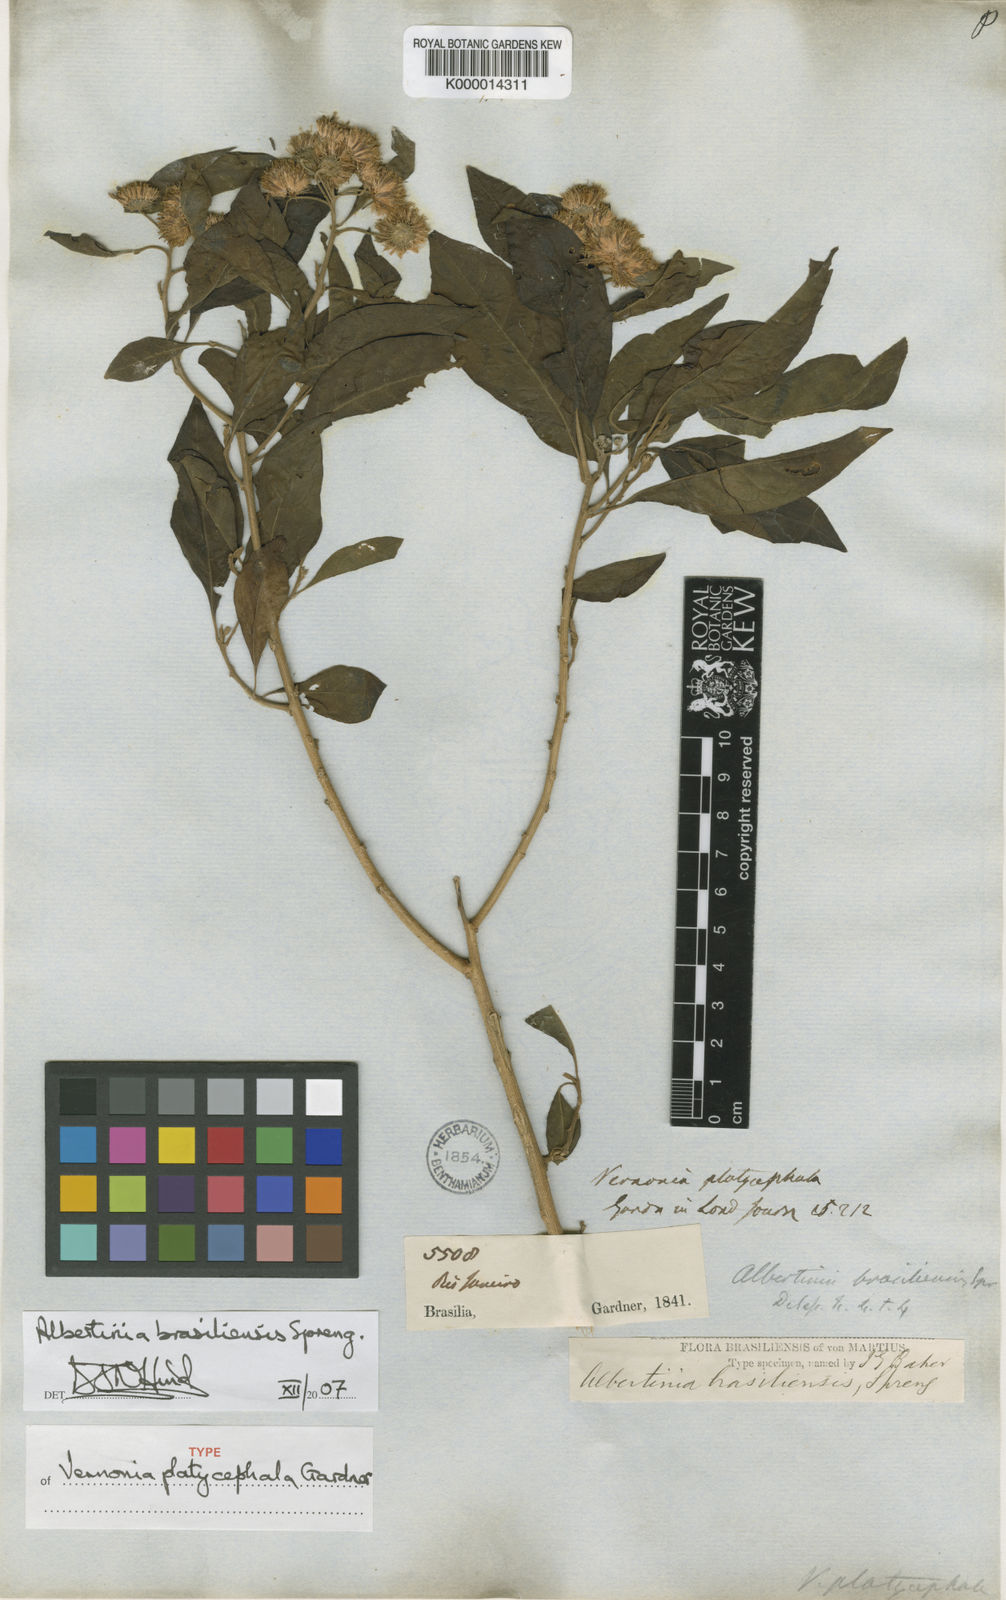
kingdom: Plantae
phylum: Tracheophyta
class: Magnoliopsida
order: Asterales
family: Asteraceae
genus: Albertinia
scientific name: Albertinia brasiliensis
